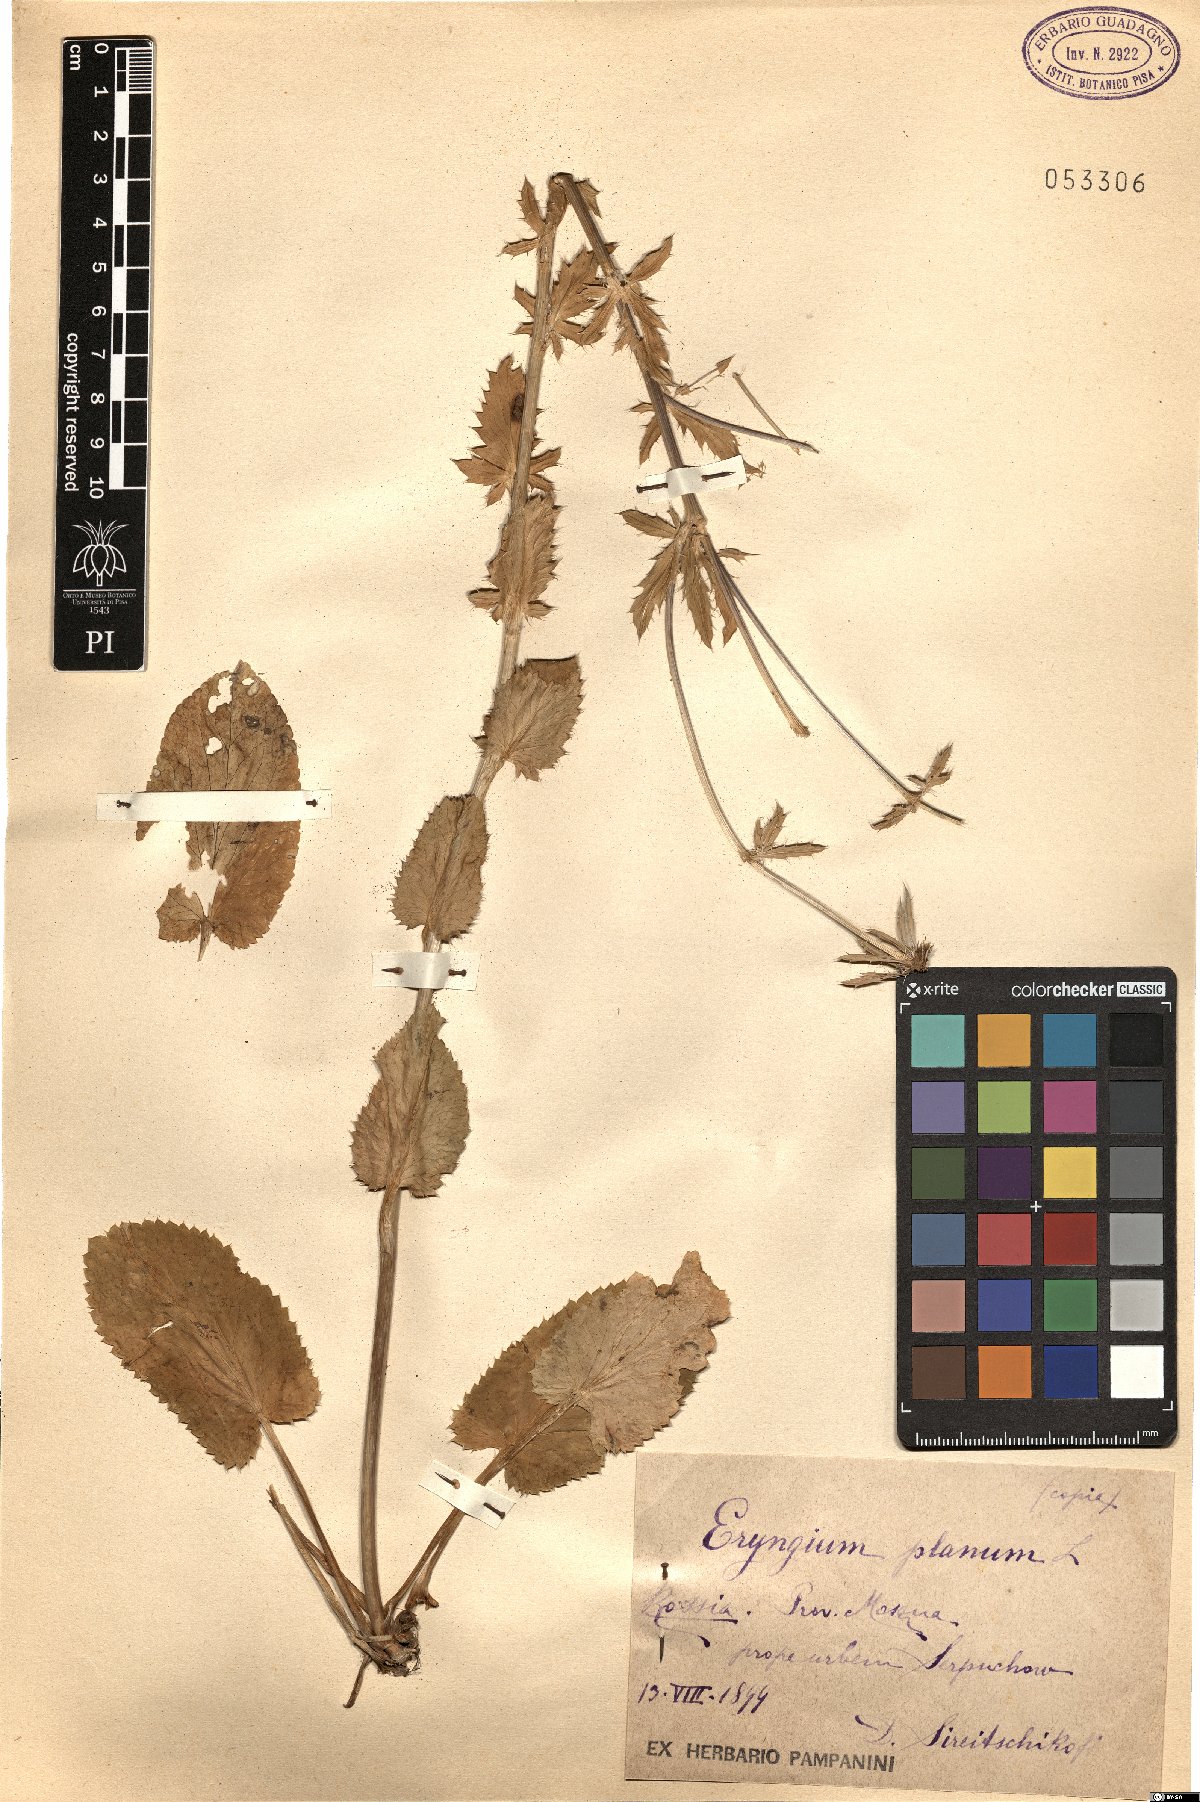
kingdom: Plantae
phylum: Tracheophyta
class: Magnoliopsida
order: Apiales
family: Apiaceae
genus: Eryngium
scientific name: Eryngium planum
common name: Blue eryngo
